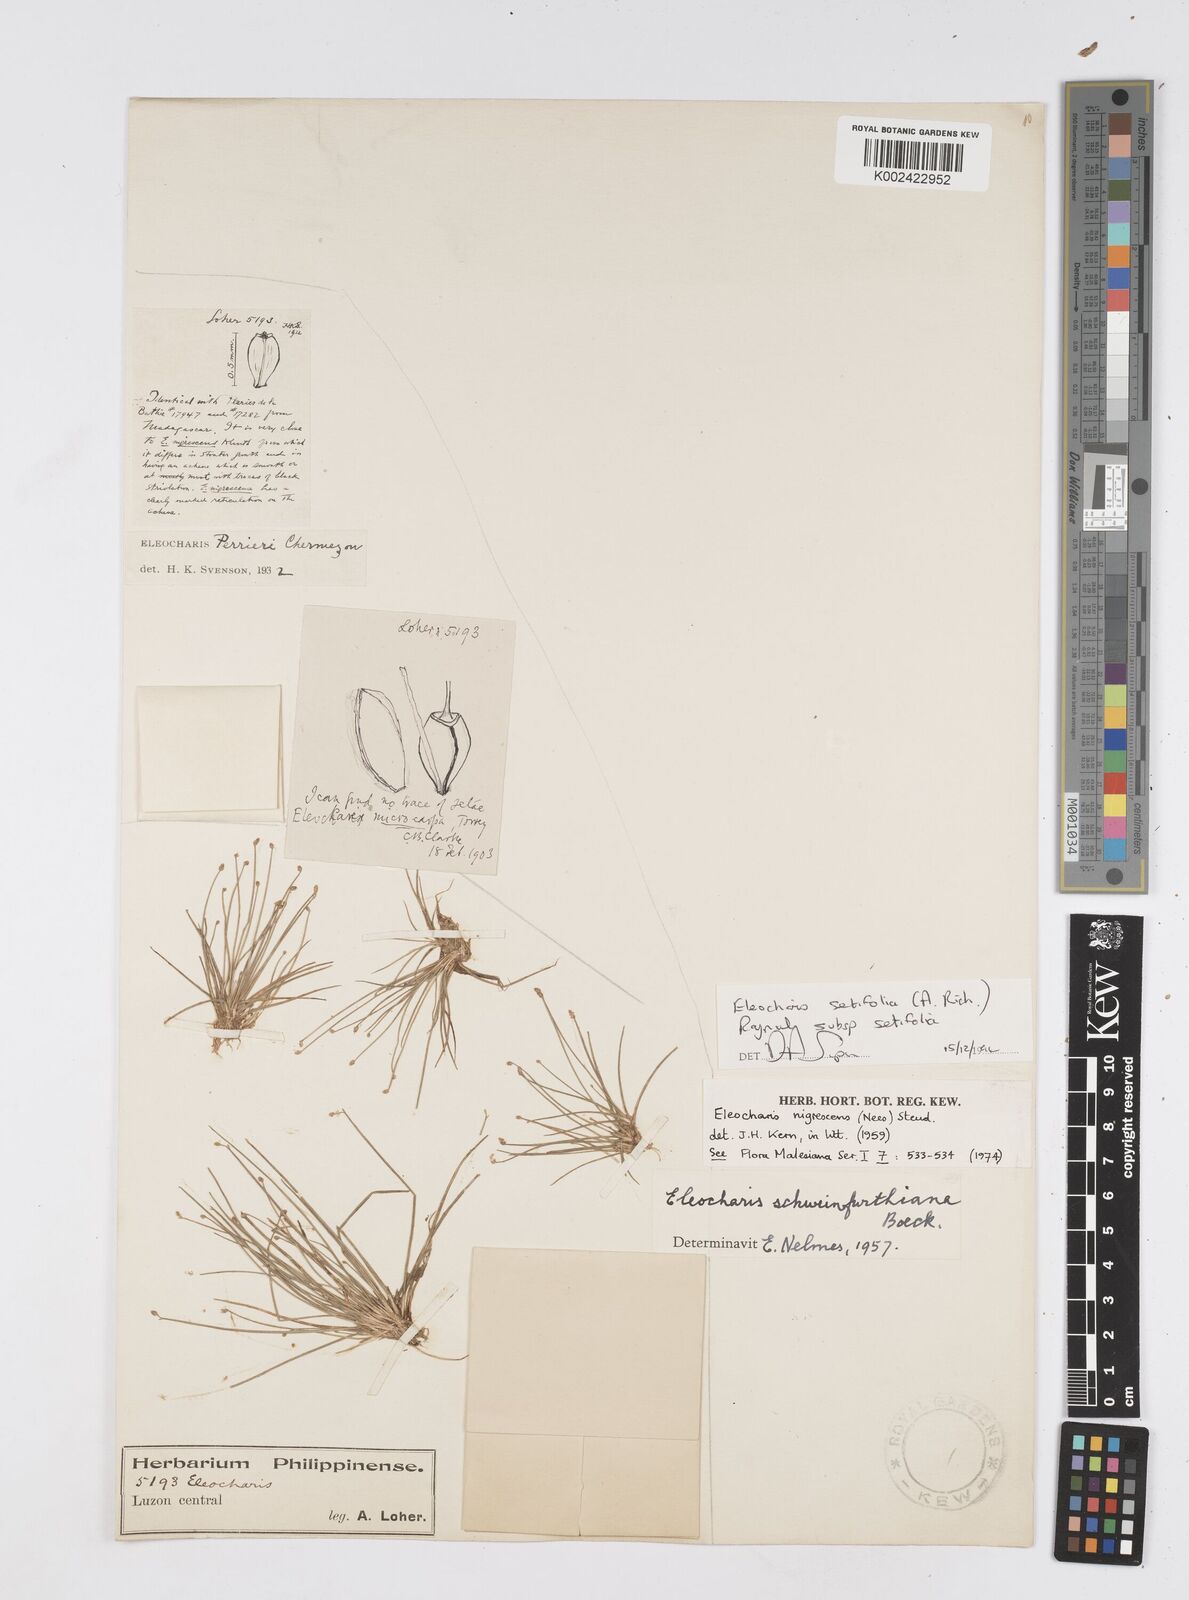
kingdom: Plantae
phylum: Tracheophyta
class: Liliopsida
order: Poales
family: Cyperaceae
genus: Eleocharis
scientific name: Eleocharis setifolia
